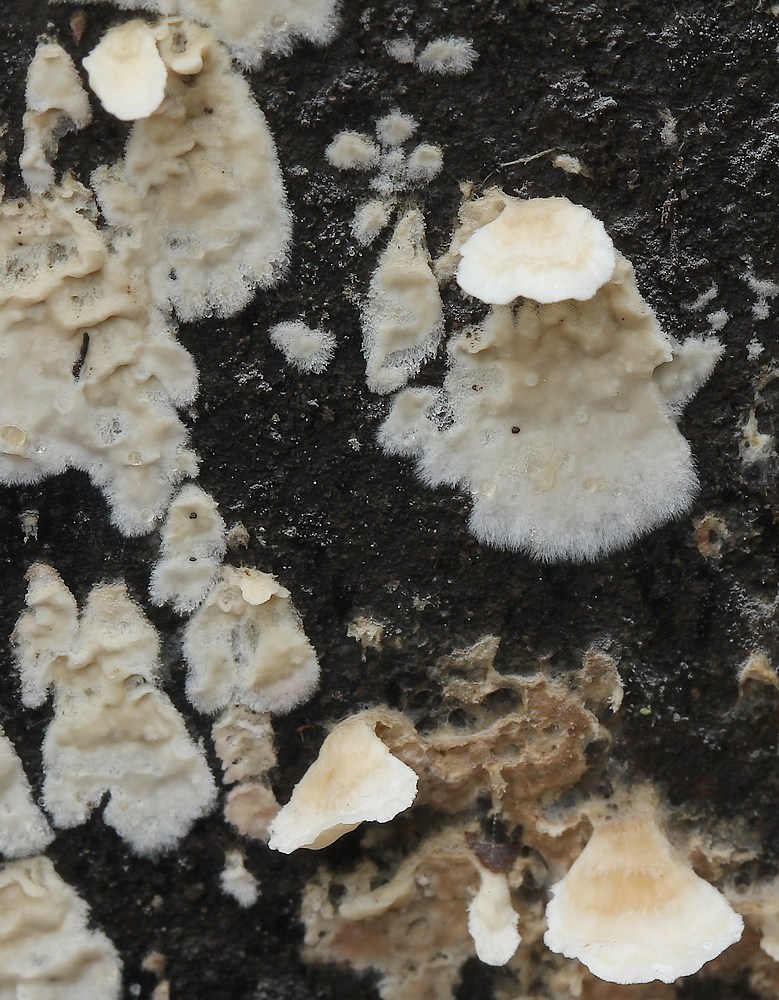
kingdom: Fungi
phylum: Basidiomycota
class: Agaricomycetes
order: Agaricales
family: Physalacriaceae
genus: Cylindrobasidium
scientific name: Cylindrobasidium evolvens
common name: sprækkehinde
